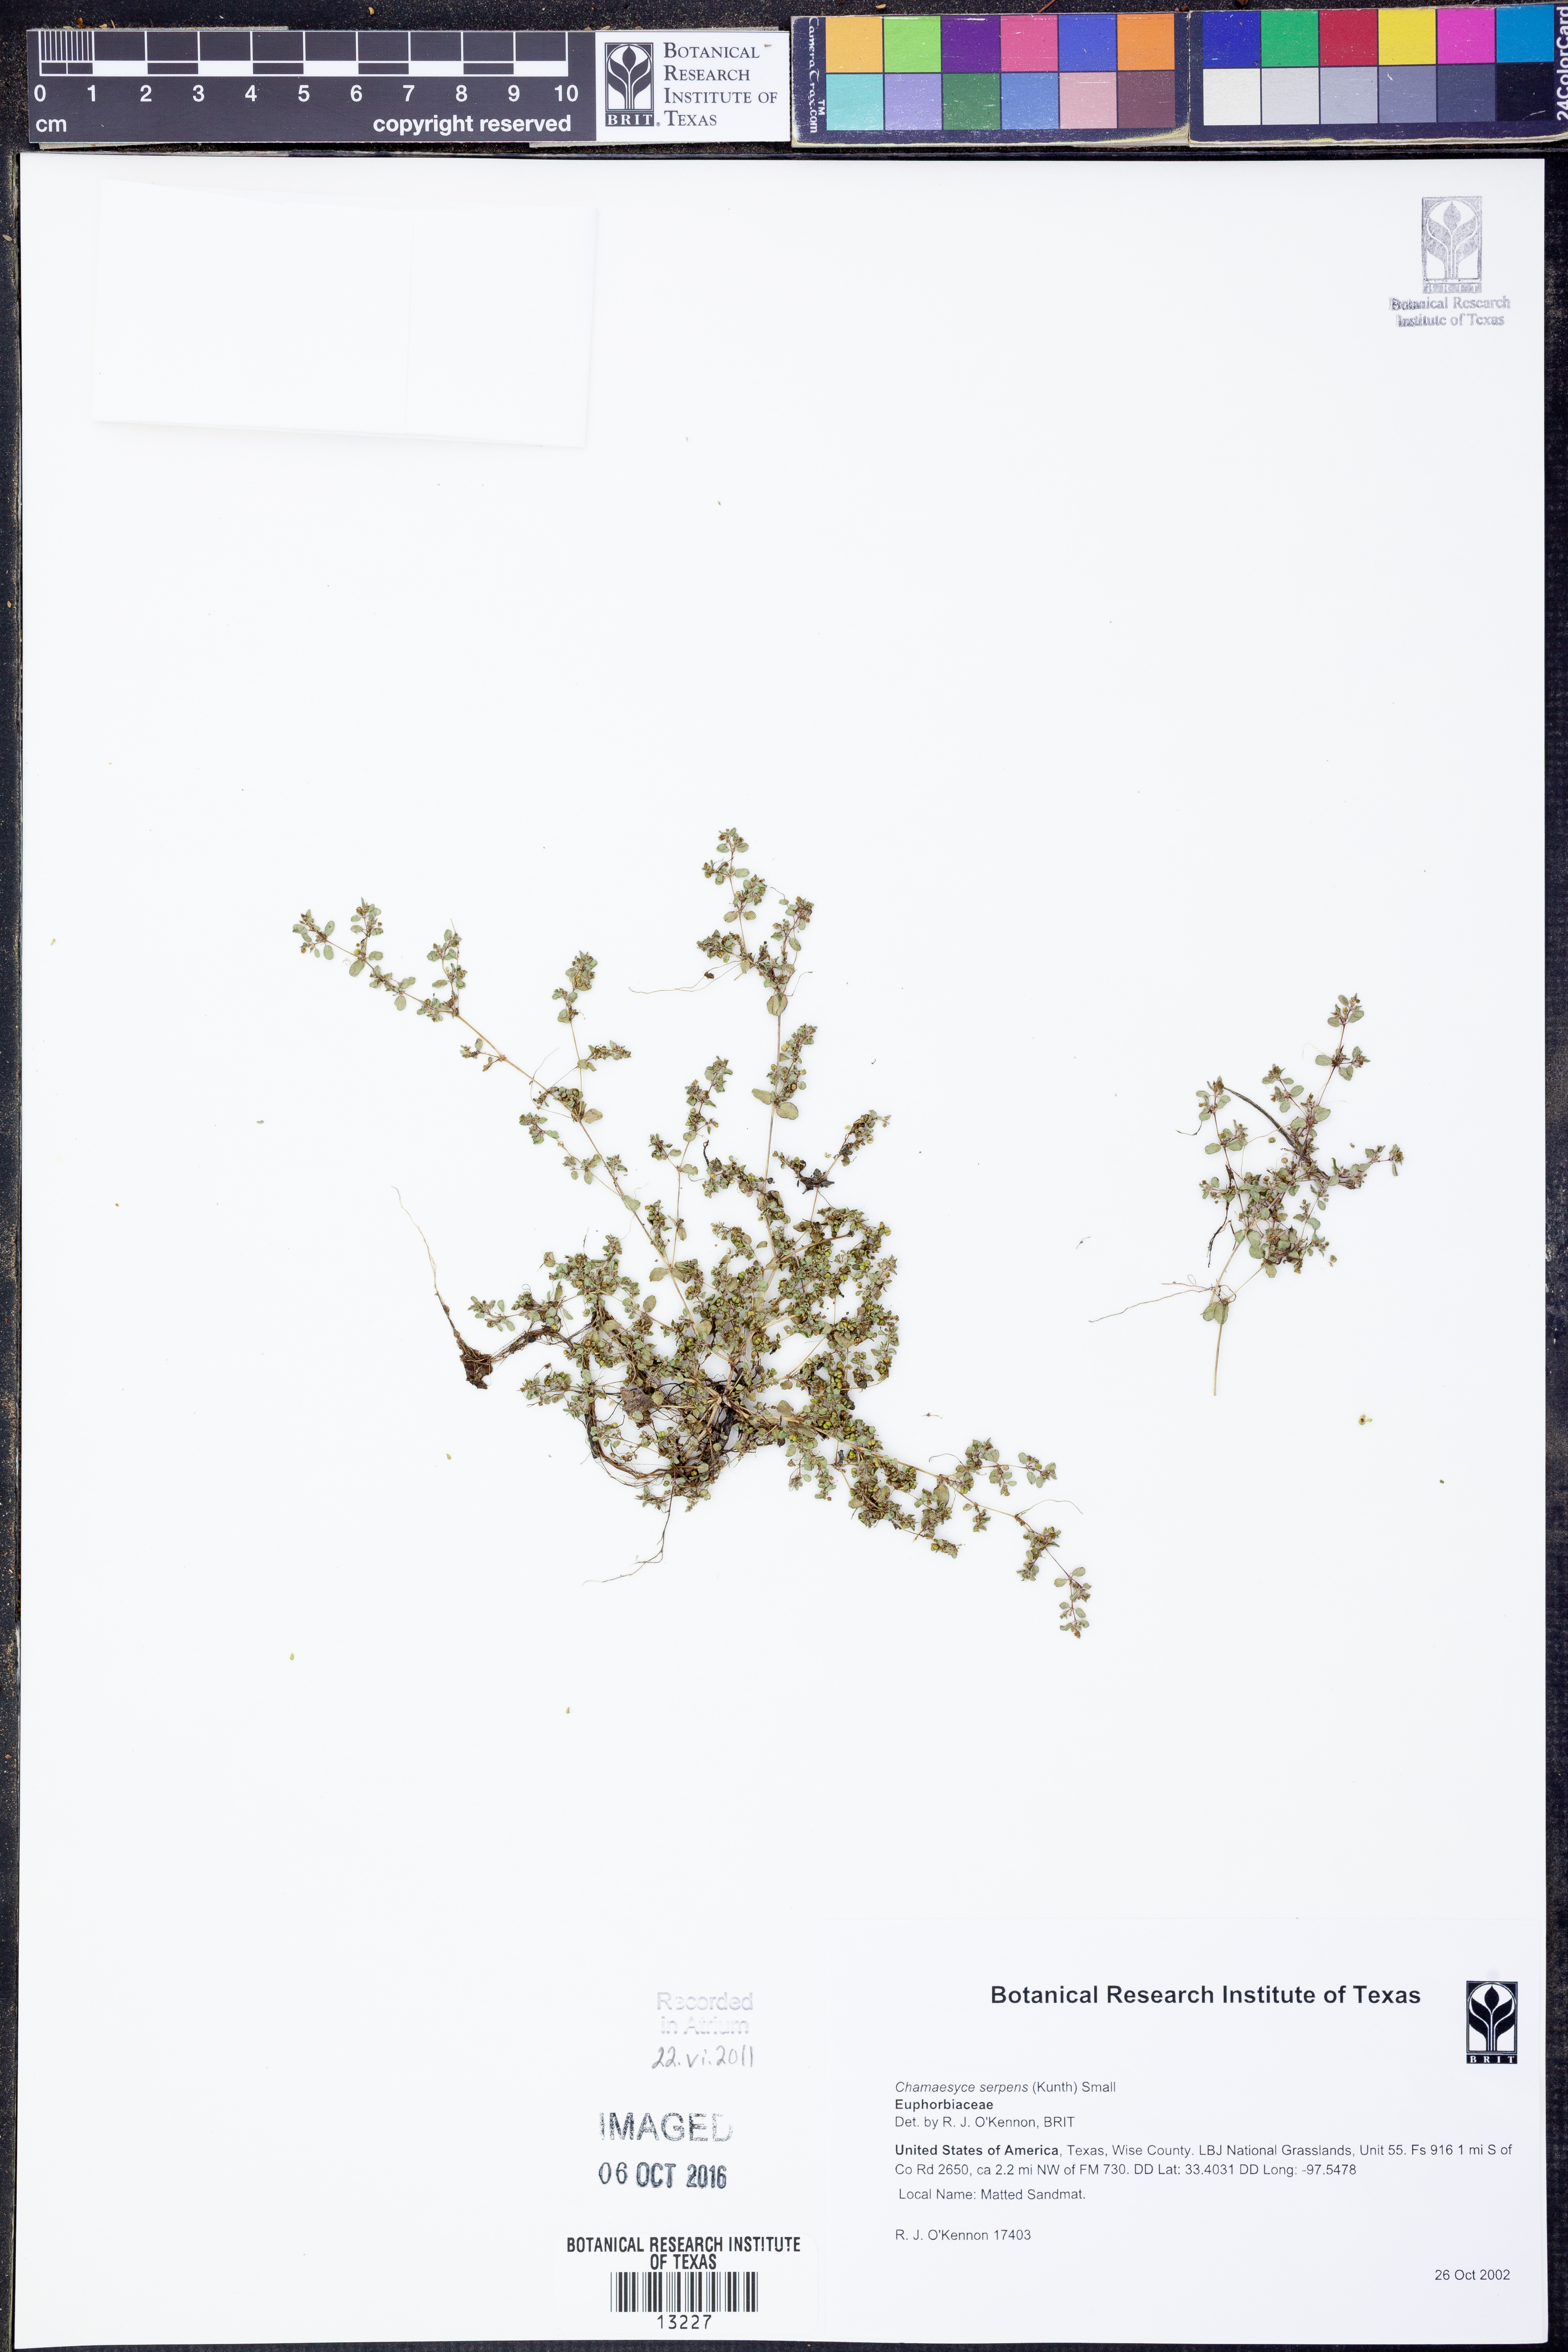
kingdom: Plantae
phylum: Tracheophyta
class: Magnoliopsida
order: Malpighiales
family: Euphorbiaceae
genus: Euphorbia
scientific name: Euphorbia serpens
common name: Matted sandmat
